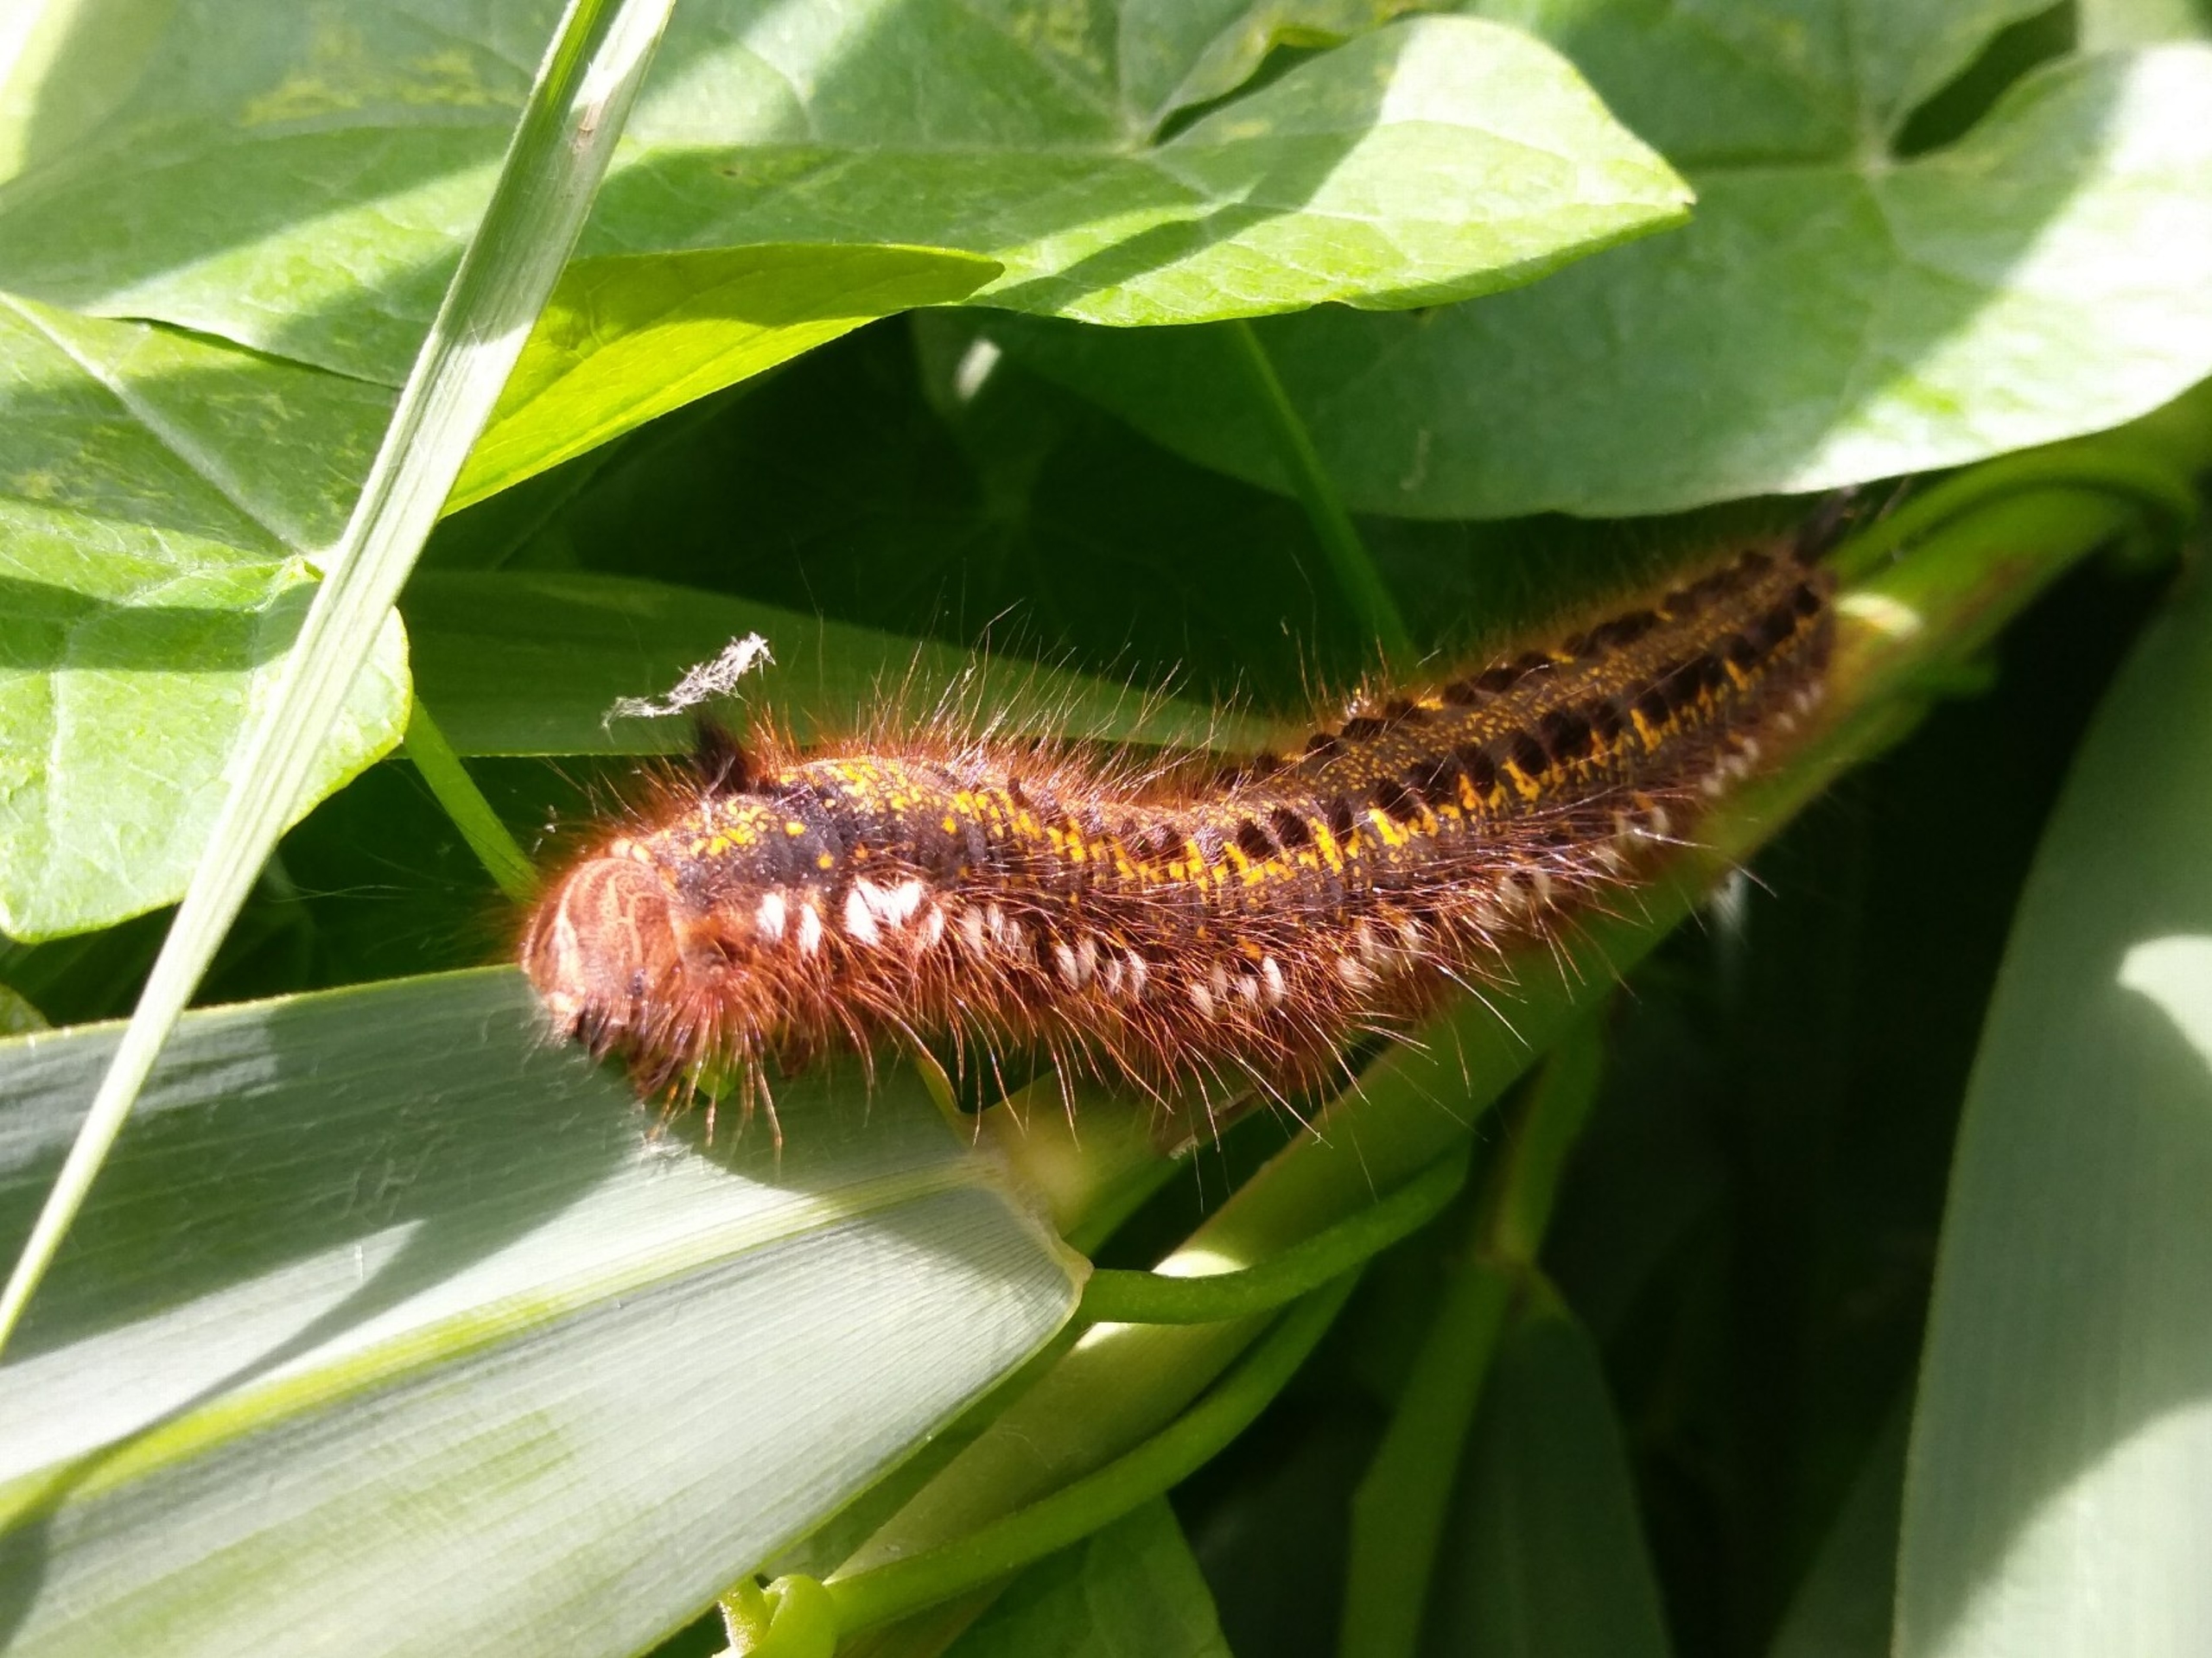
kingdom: Animalia
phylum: Arthropoda
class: Insecta
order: Lepidoptera
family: Lasiocampidae
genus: Euthrix
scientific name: Euthrix potatoria
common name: Græsspinder
